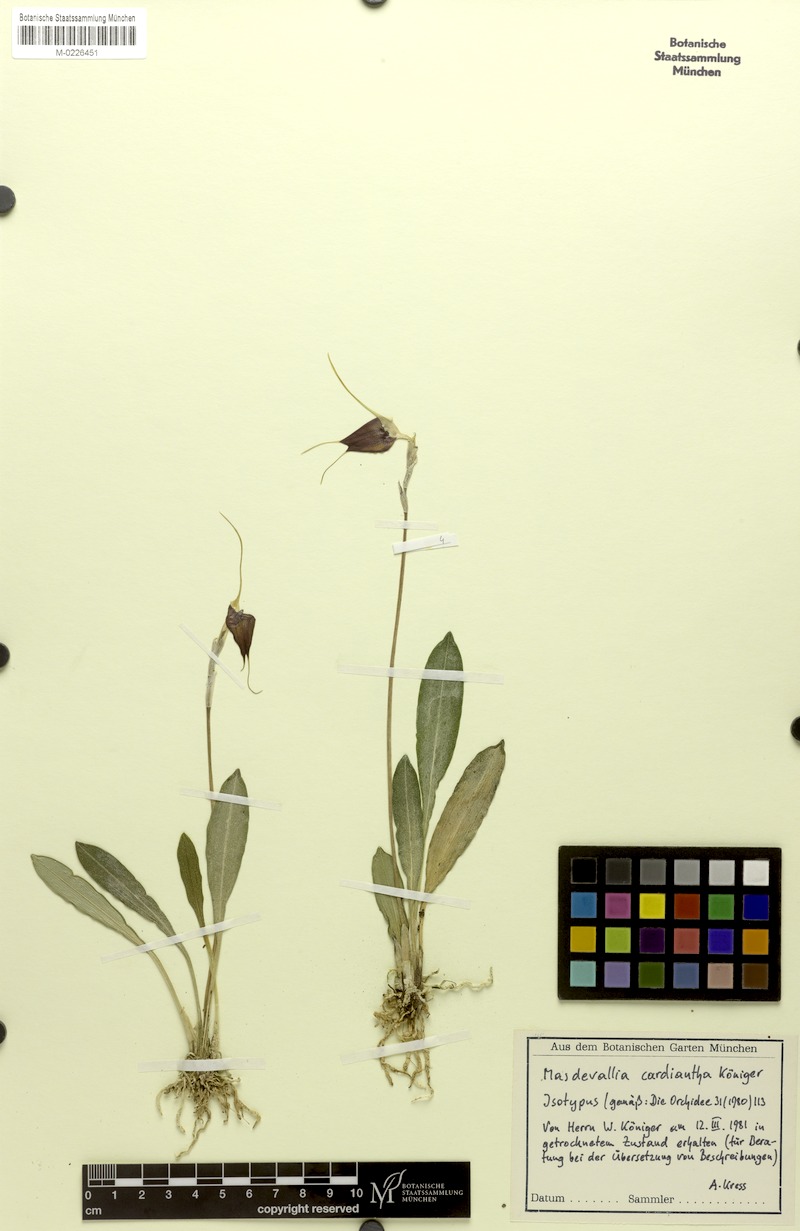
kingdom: Plantae
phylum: Tracheophyta
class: Liliopsida
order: Asparagales
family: Orchidaceae
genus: Masdevallia
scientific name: Masdevallia cardiantha
